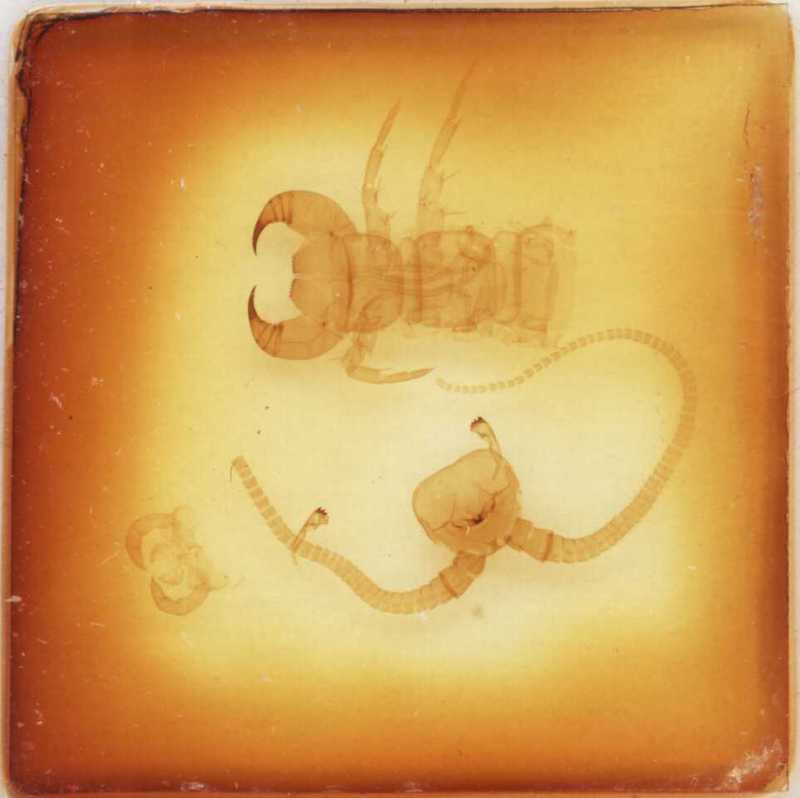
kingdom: Animalia
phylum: Arthropoda
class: Chilopoda
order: Lithobiomorpha
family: Lithobiidae
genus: Eupolybothrus
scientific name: Eupolybothrus imperialis
